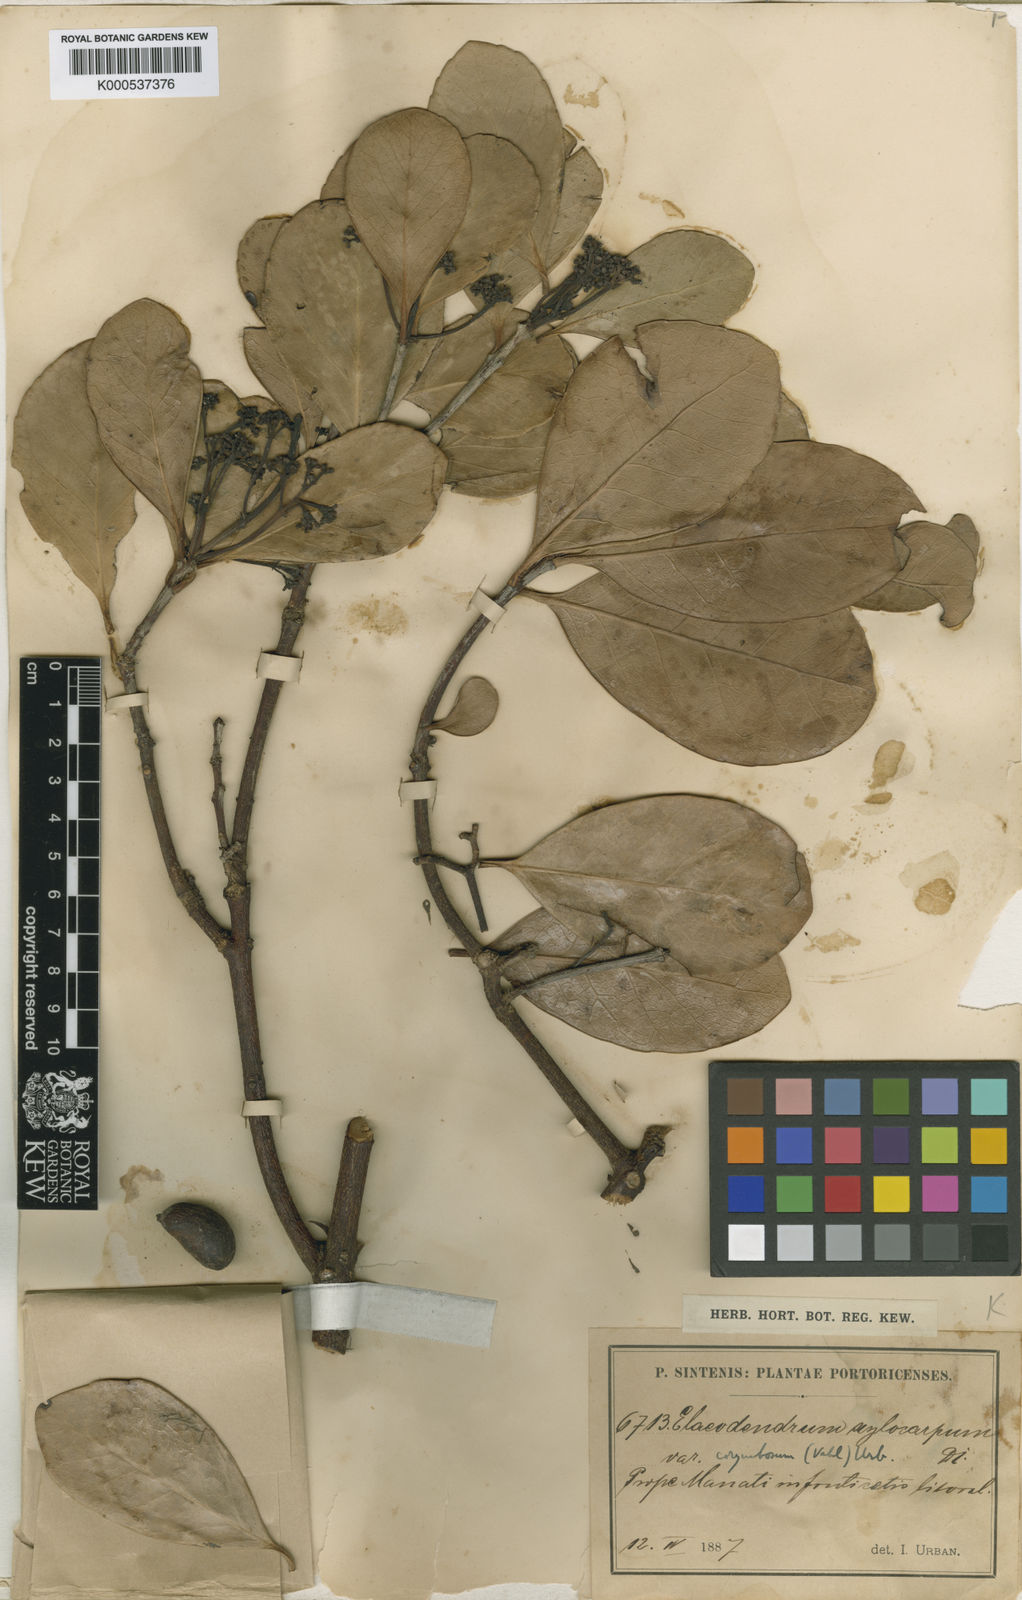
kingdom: Plantae
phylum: Tracheophyta
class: Magnoliopsida
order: Celastrales
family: Celastraceae
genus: Elaeodendron
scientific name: Elaeodendron xylocarpum
